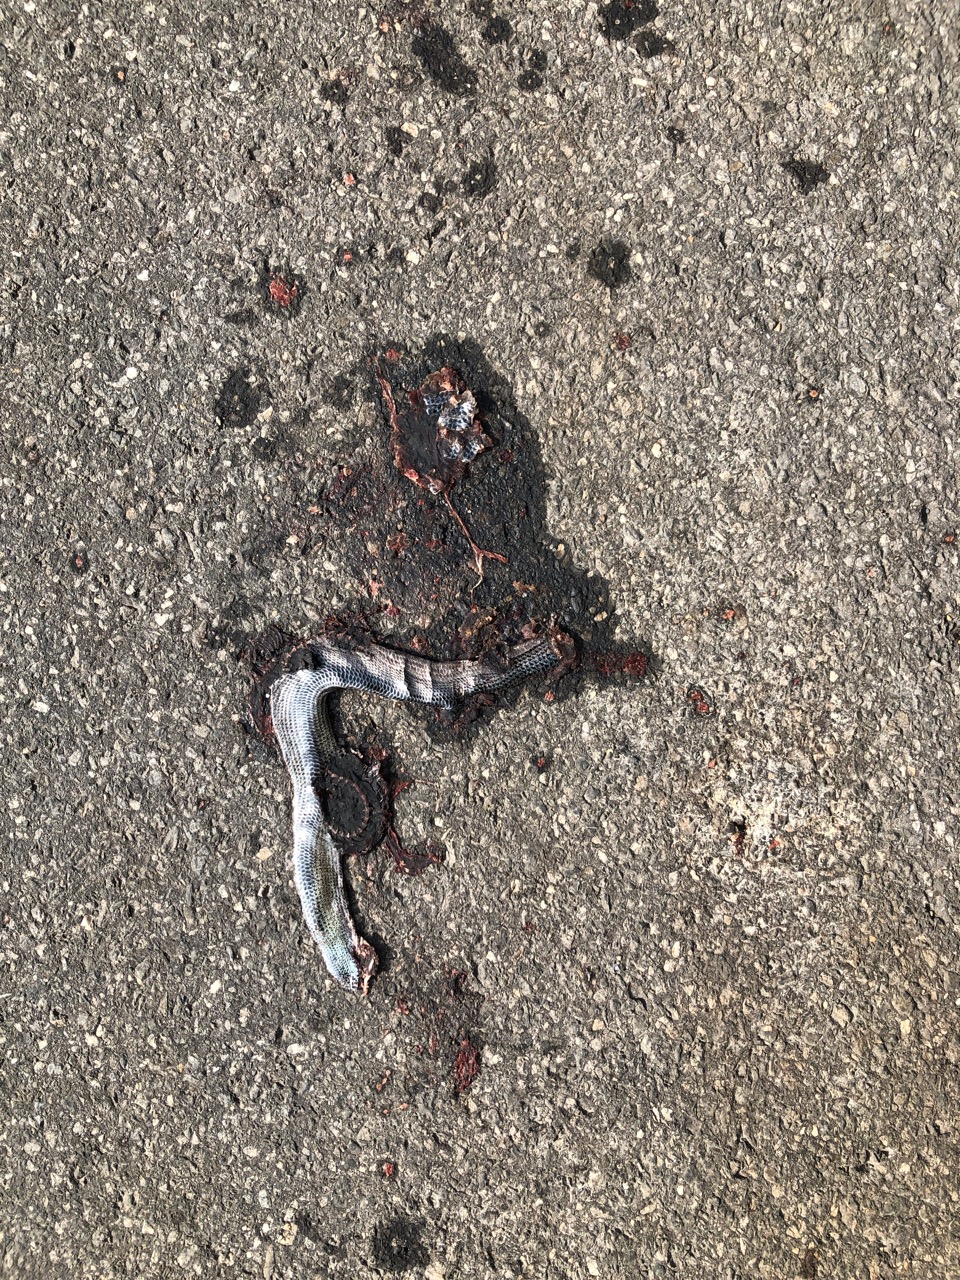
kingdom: Animalia
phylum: Chordata
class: Squamata
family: Anguidae
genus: Anguis
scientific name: Anguis fragilis
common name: Slow worm
